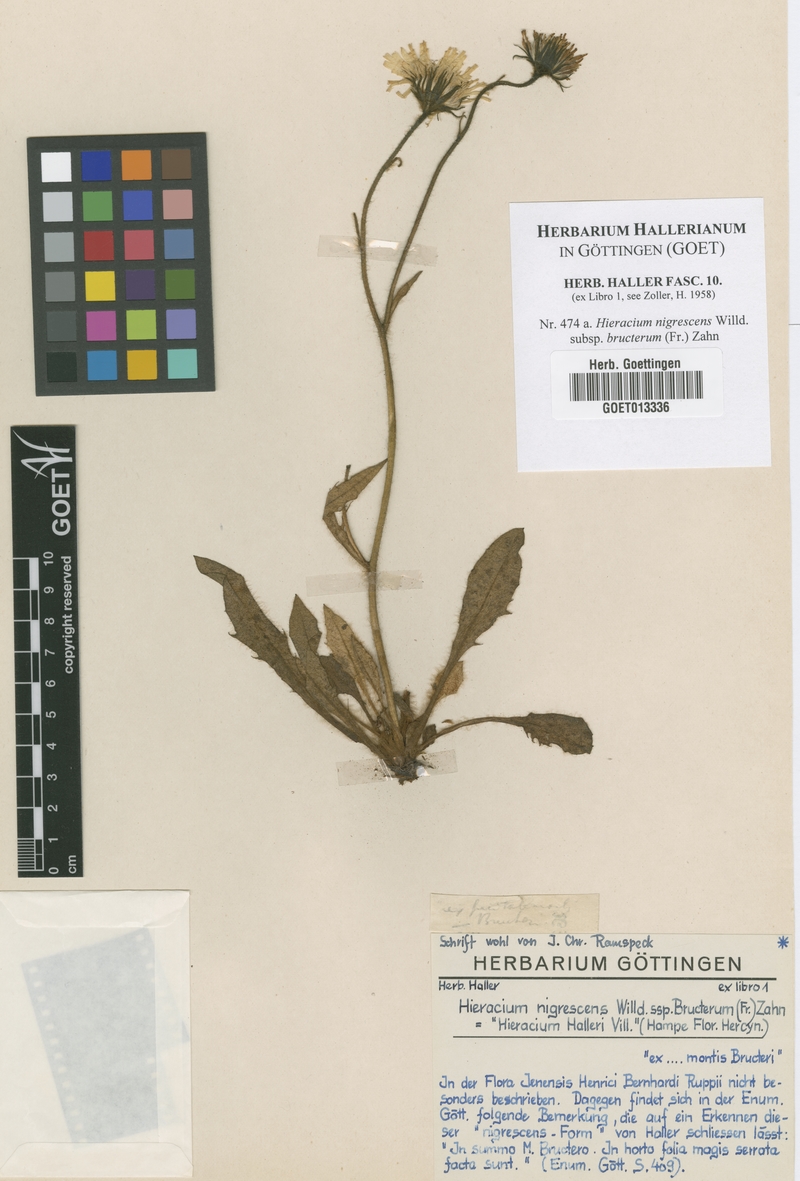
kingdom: Plantae
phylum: Tracheophyta
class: Magnoliopsida
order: Asterales
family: Asteraceae
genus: Hieracium
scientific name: Hieracium nigrescens
